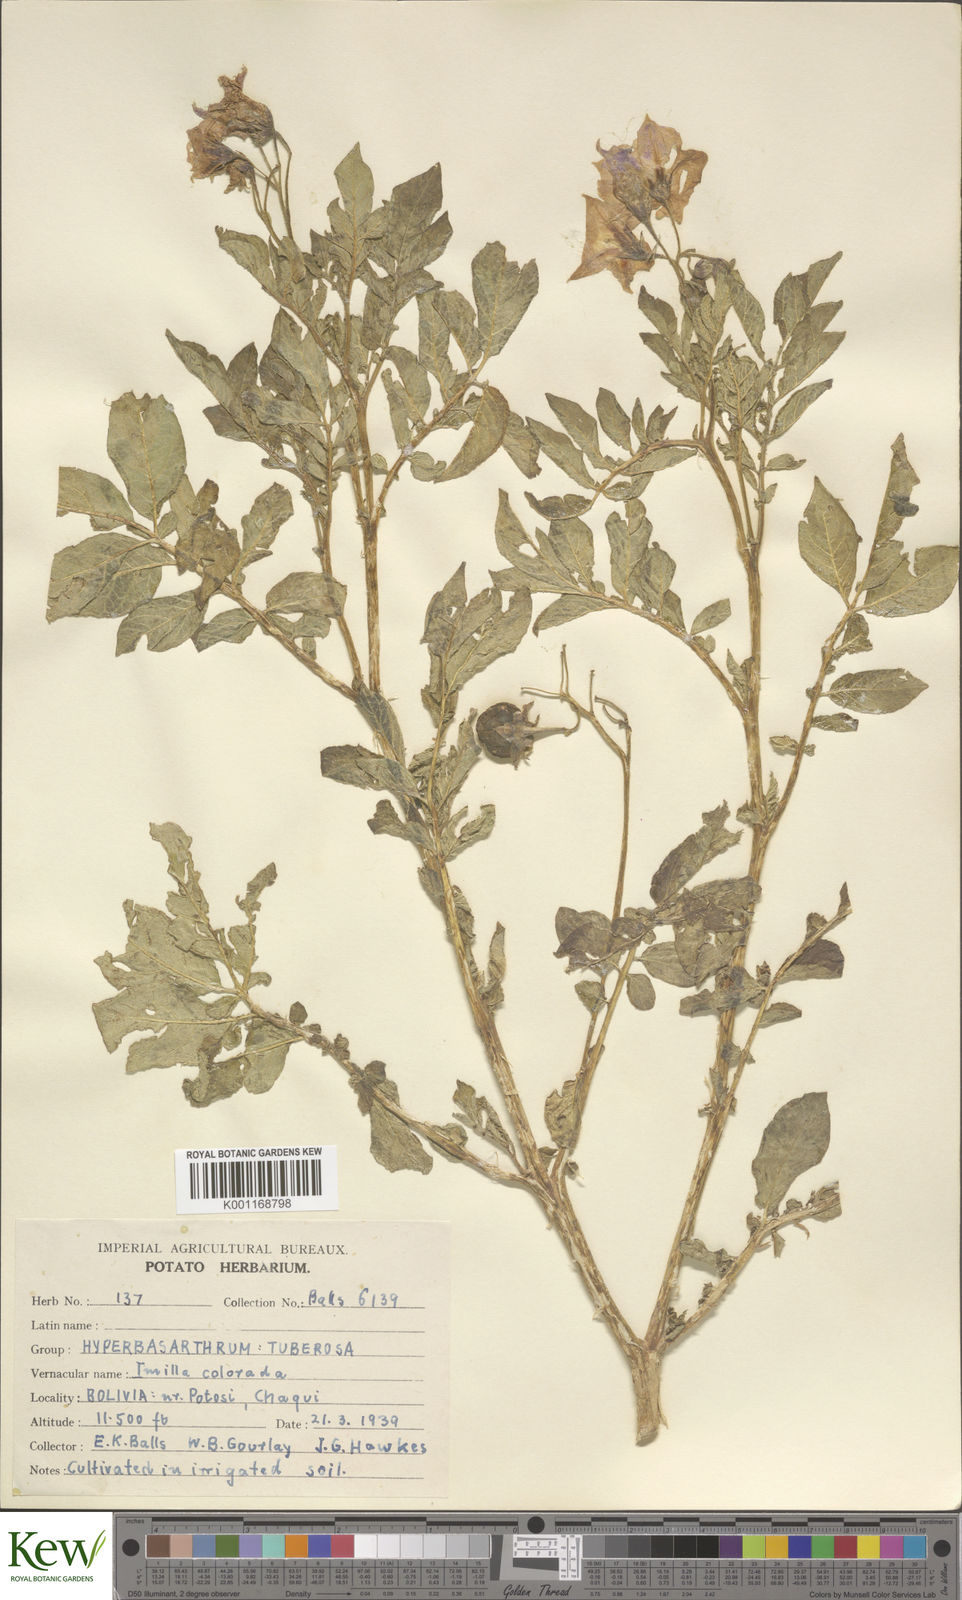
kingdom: Plantae
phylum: Tracheophyta
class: Magnoliopsida
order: Solanales
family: Solanaceae
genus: Solanum
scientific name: Solanum chaucha
